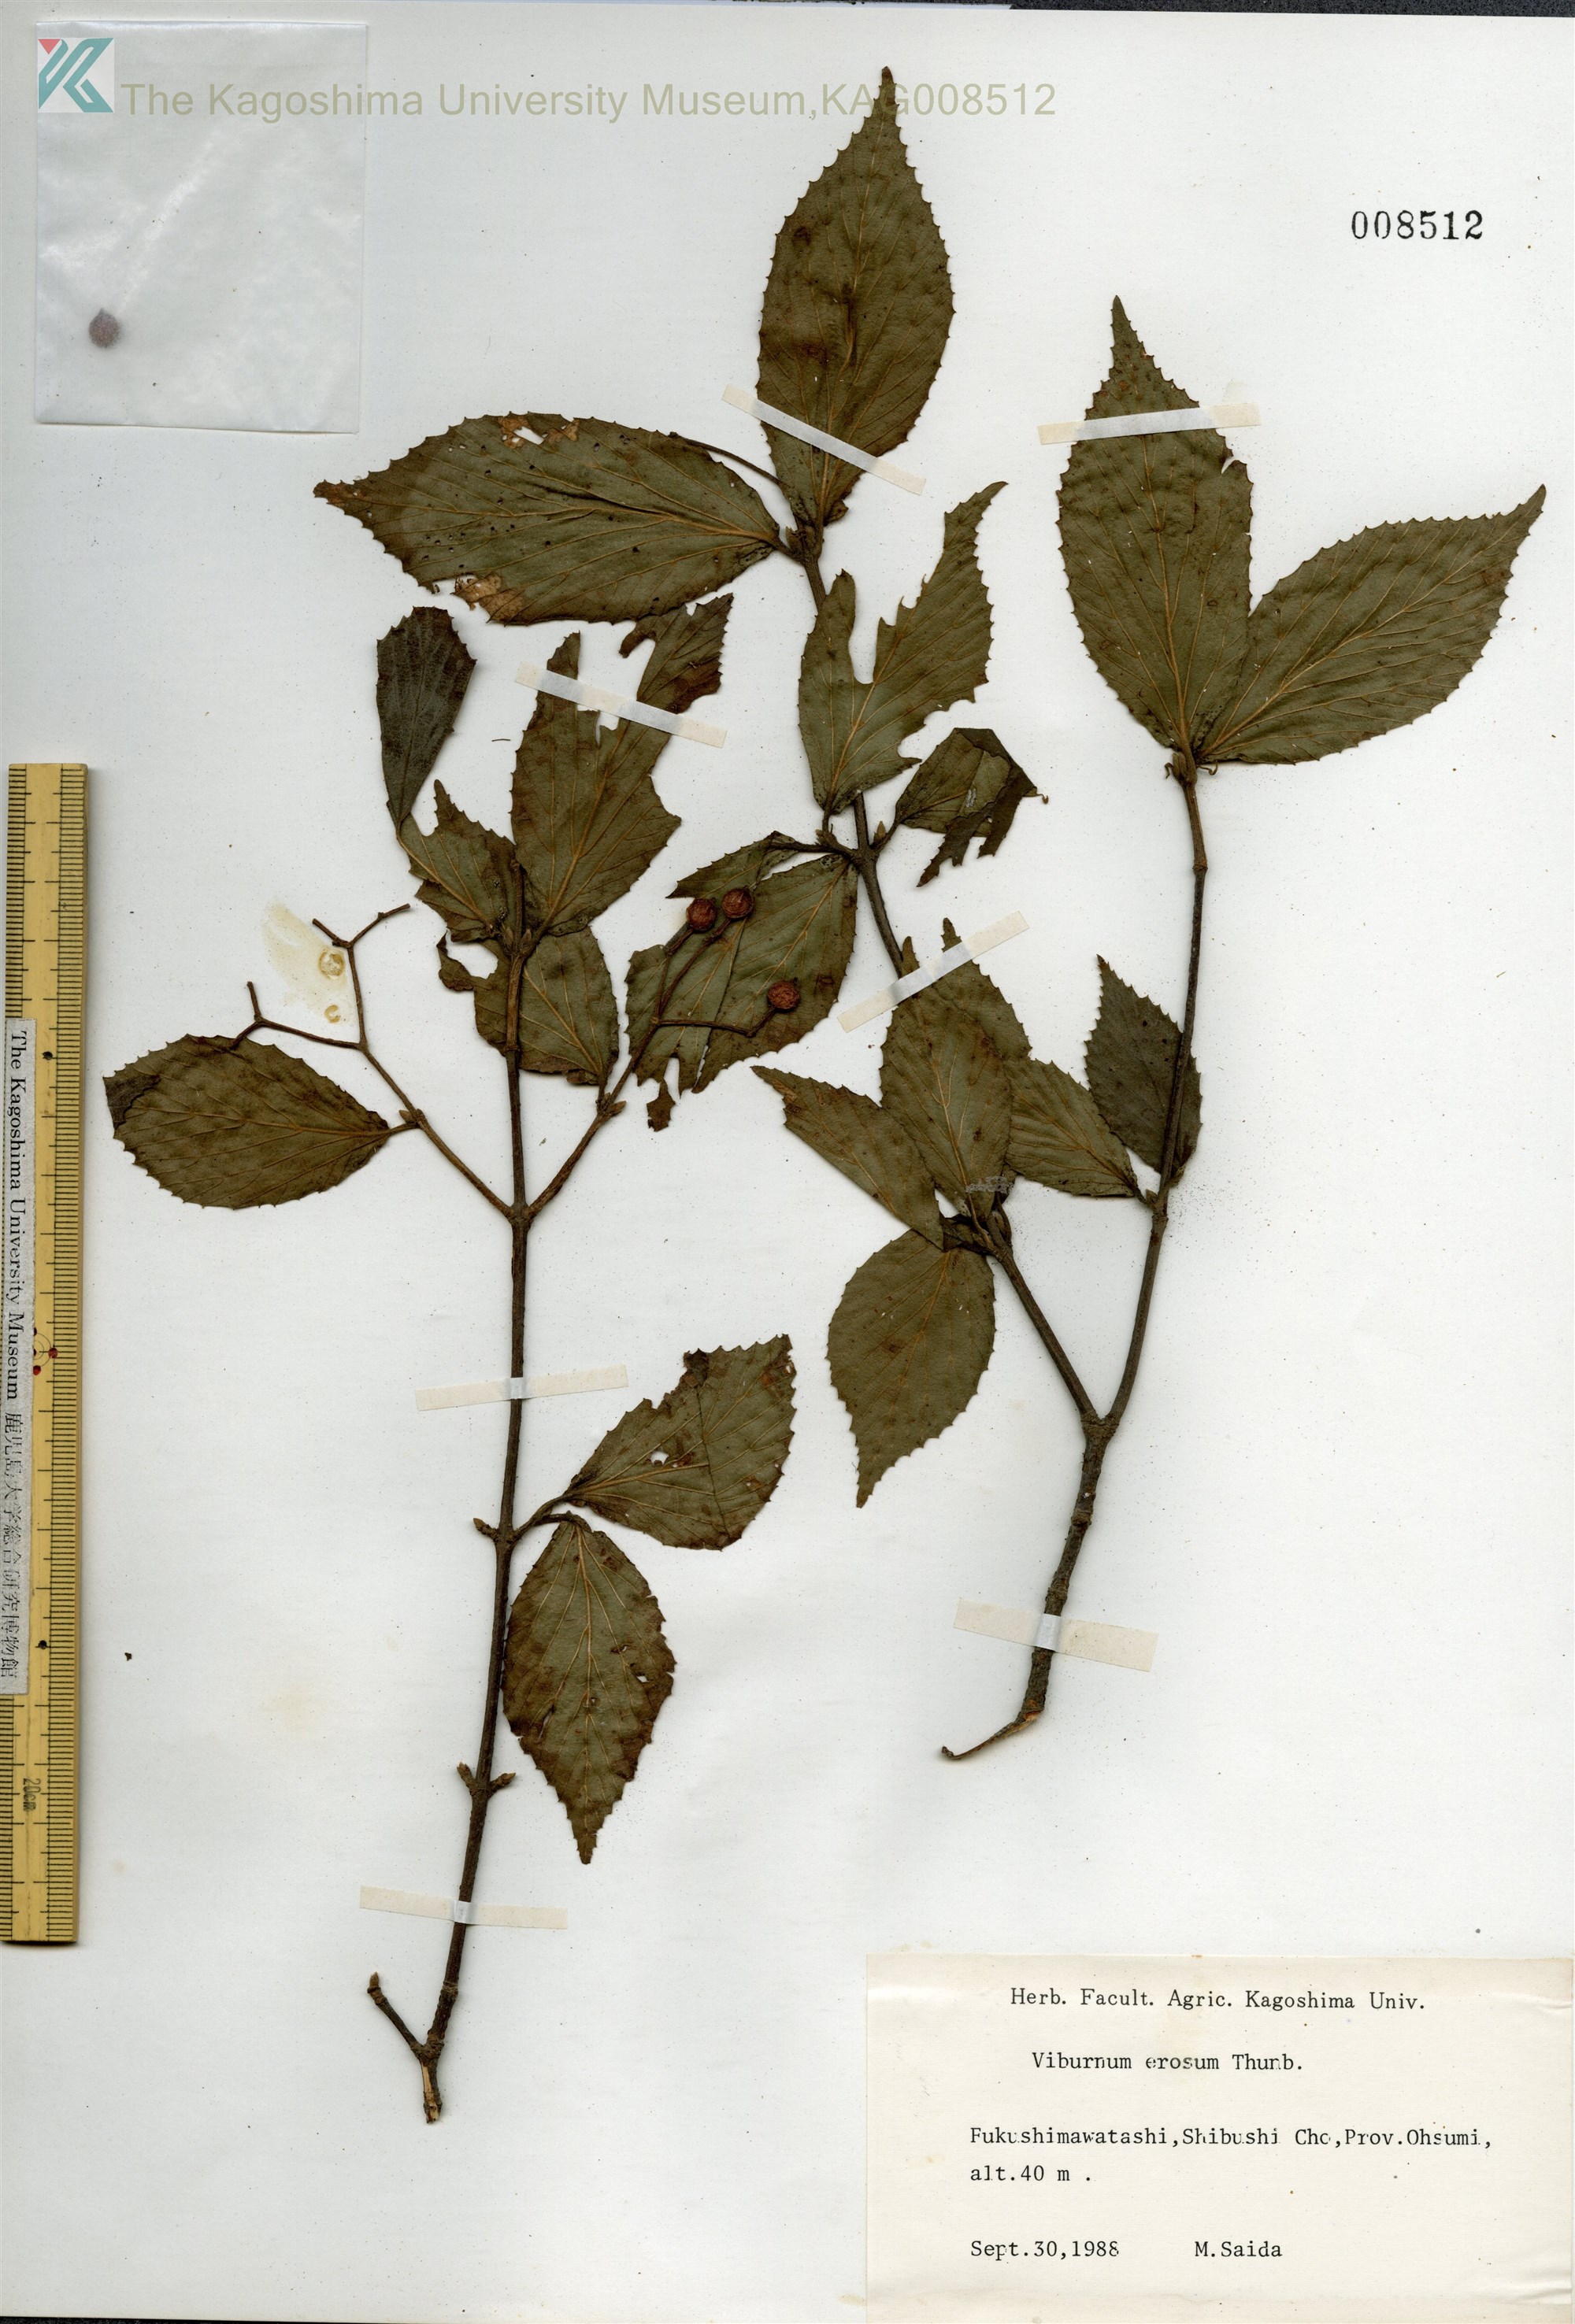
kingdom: Plantae
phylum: Tracheophyta
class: Magnoliopsida
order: Dipsacales
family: Viburnaceae
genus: Viburnum
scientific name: Viburnum erosum
